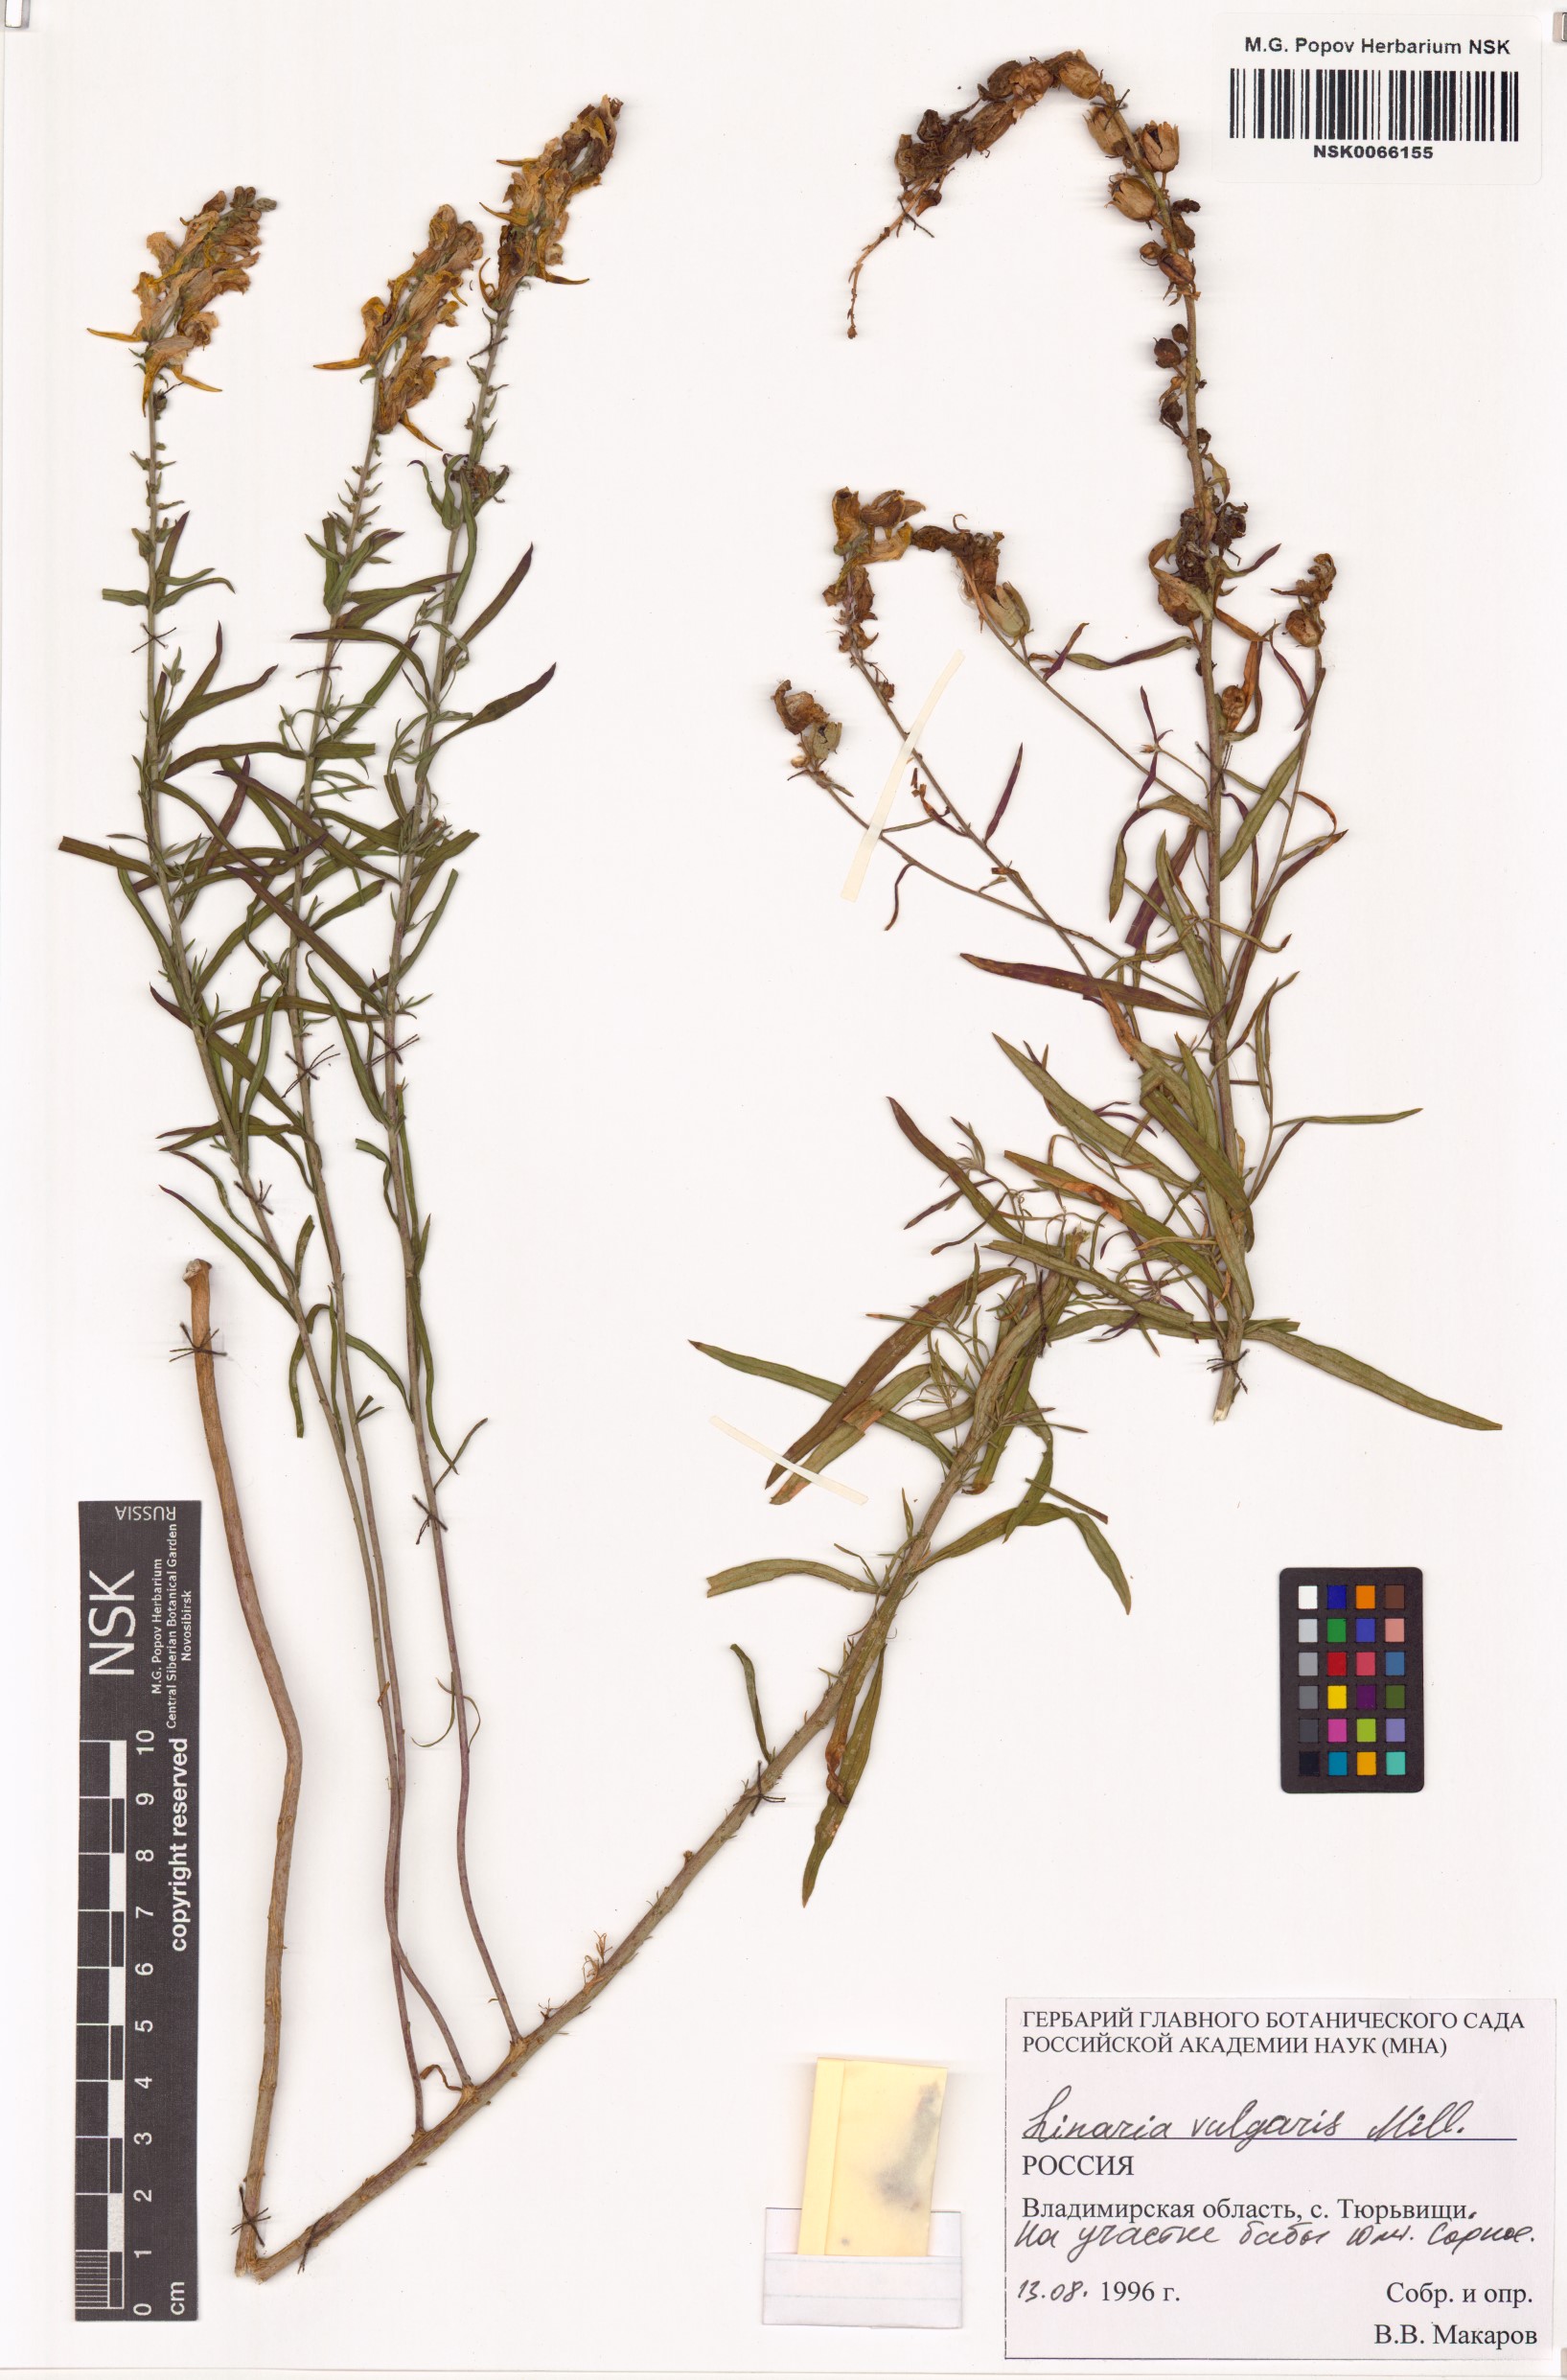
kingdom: Plantae
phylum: Tracheophyta
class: Magnoliopsida
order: Lamiales
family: Plantaginaceae
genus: Linaria
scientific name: Linaria vulgaris
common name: Butter and eggs
